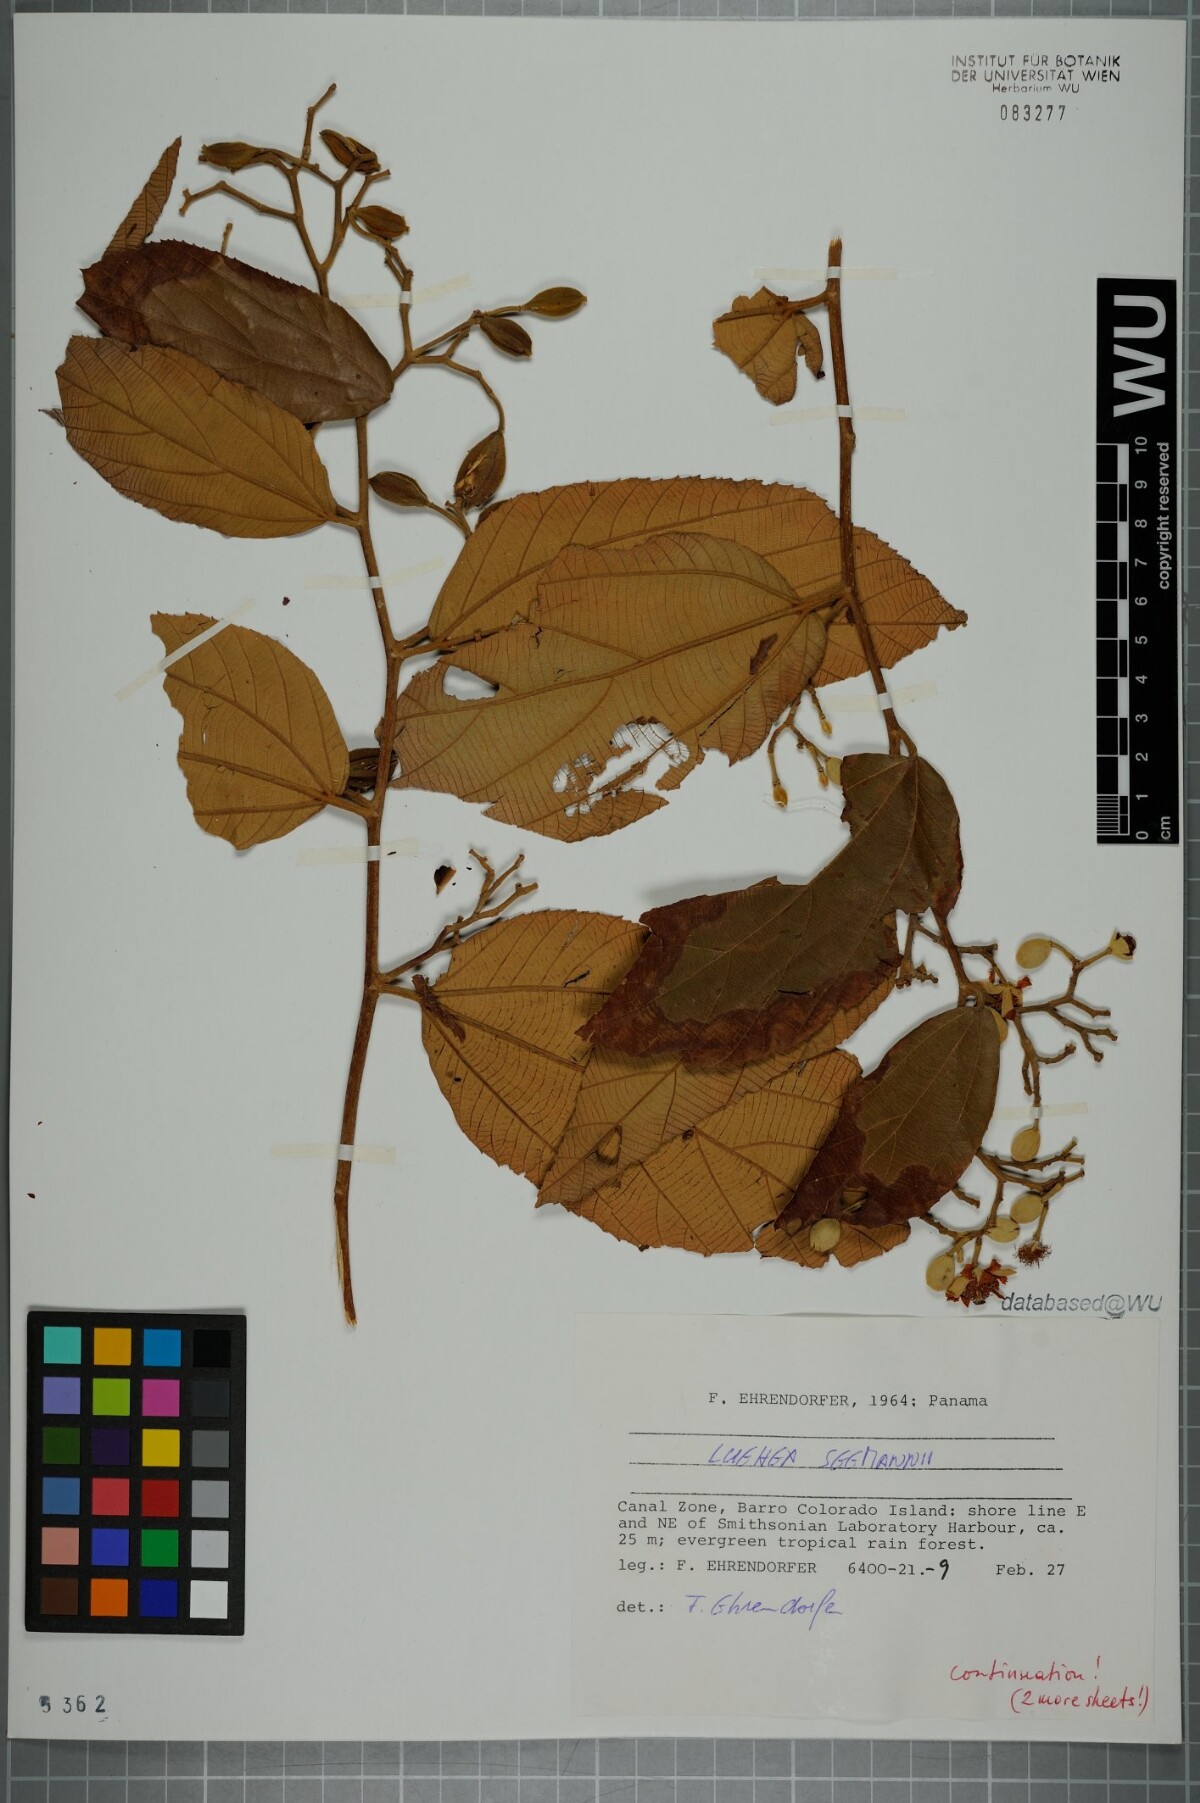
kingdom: Plantae
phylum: Tracheophyta
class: Magnoliopsida
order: Malvales
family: Malvaceae
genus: Luehea
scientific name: Luehea seemannii
